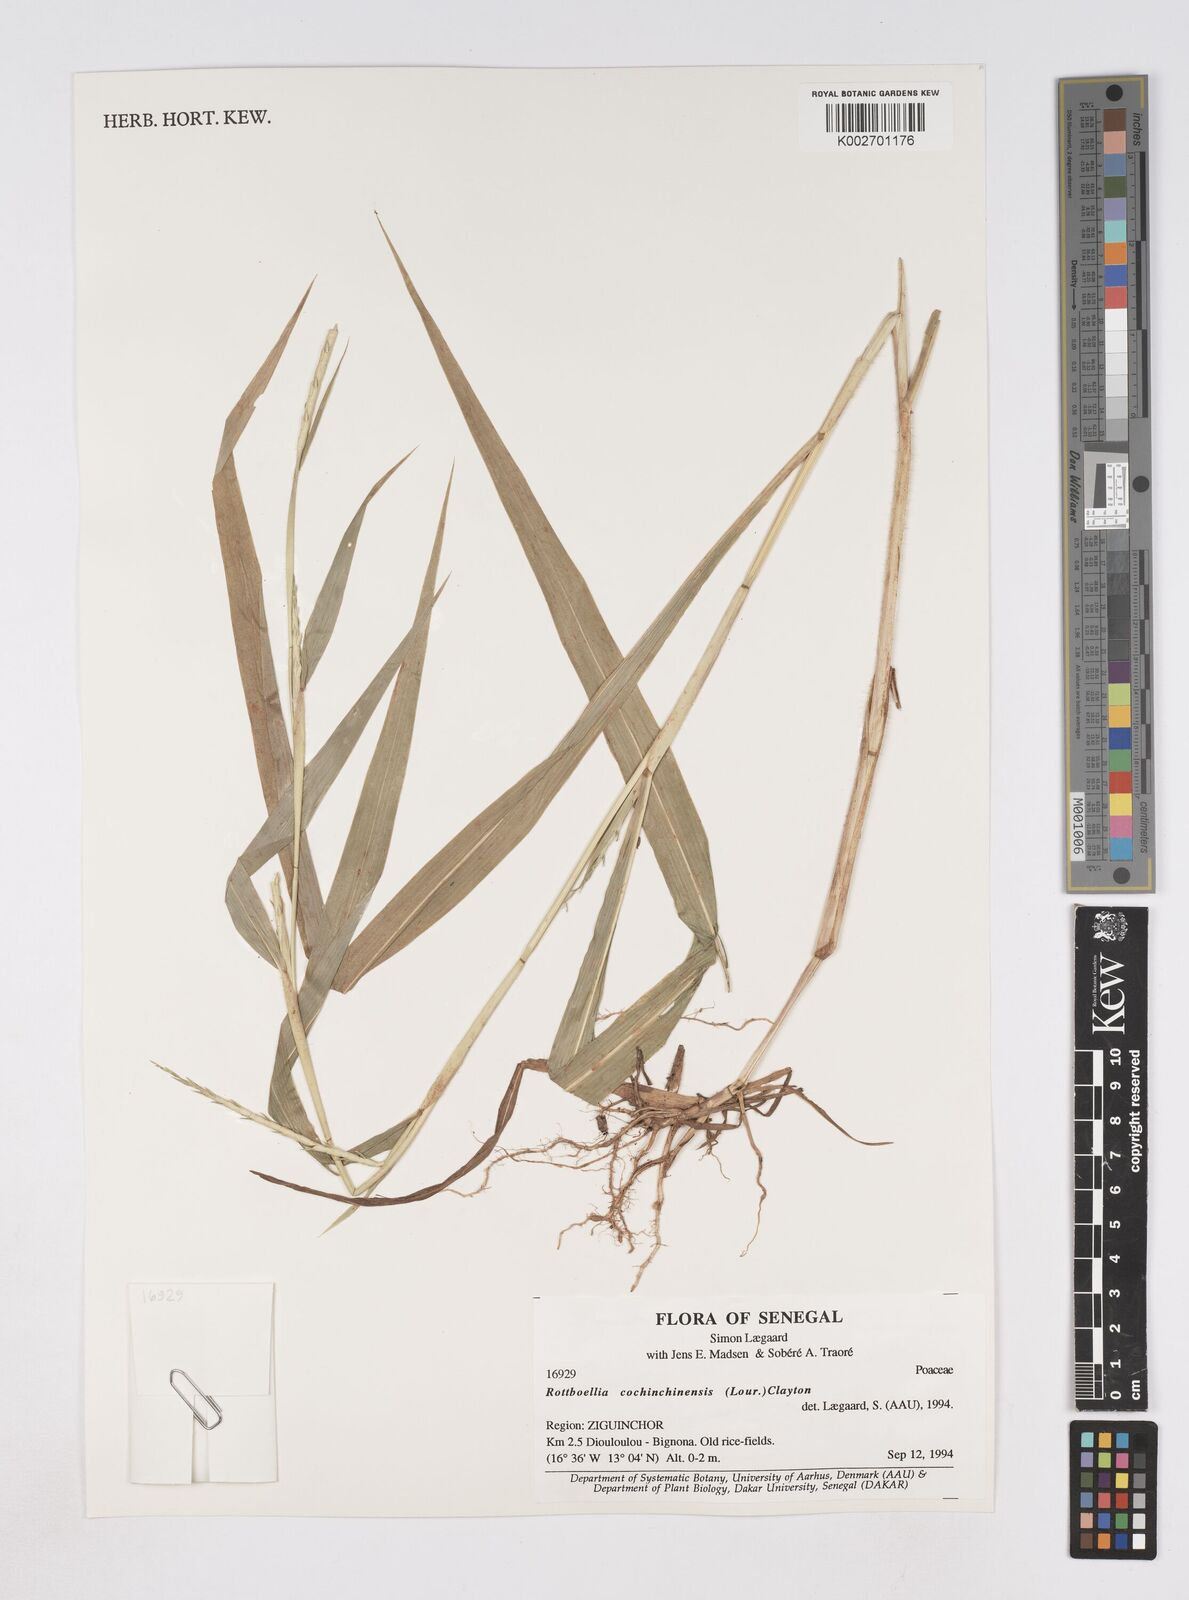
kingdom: Plantae
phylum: Tracheophyta
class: Liliopsida
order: Poales
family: Poaceae
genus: Ophiuros
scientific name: Ophiuros exaltatus
